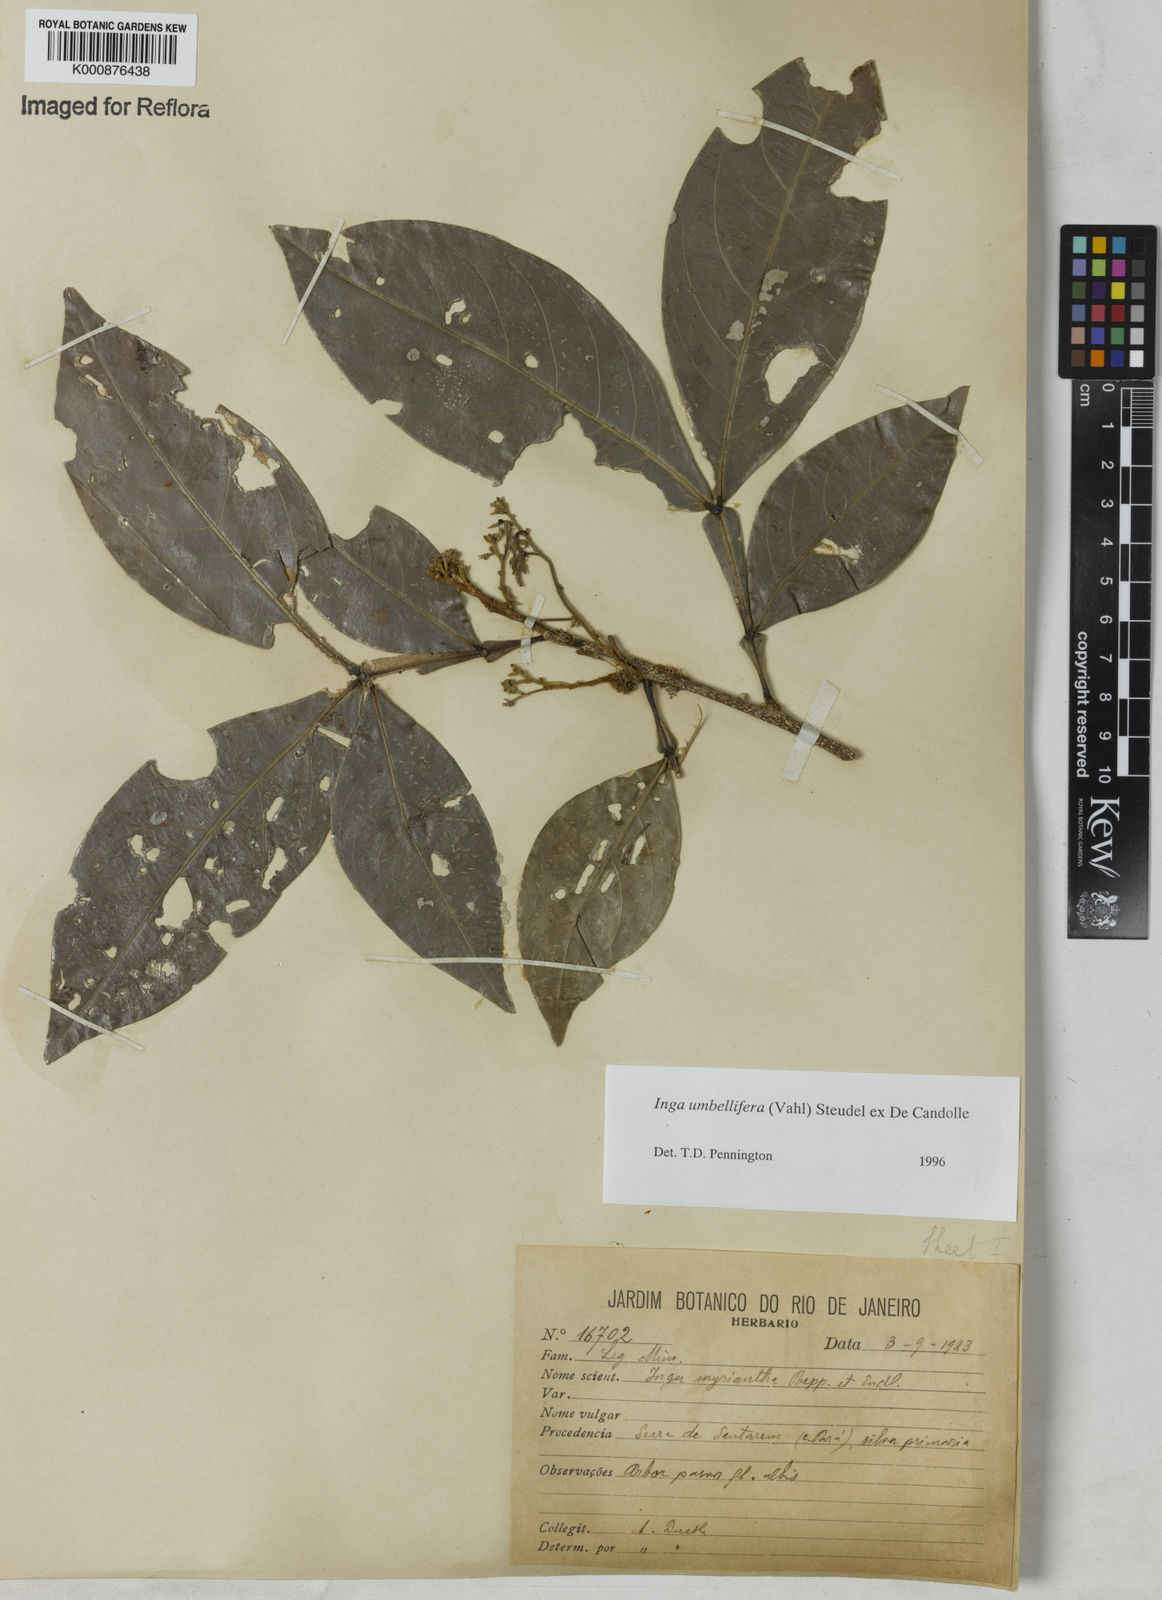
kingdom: Plantae
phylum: Tracheophyta
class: Magnoliopsida
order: Fabales
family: Fabaceae
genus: Inga
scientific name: Inga umbellifera
